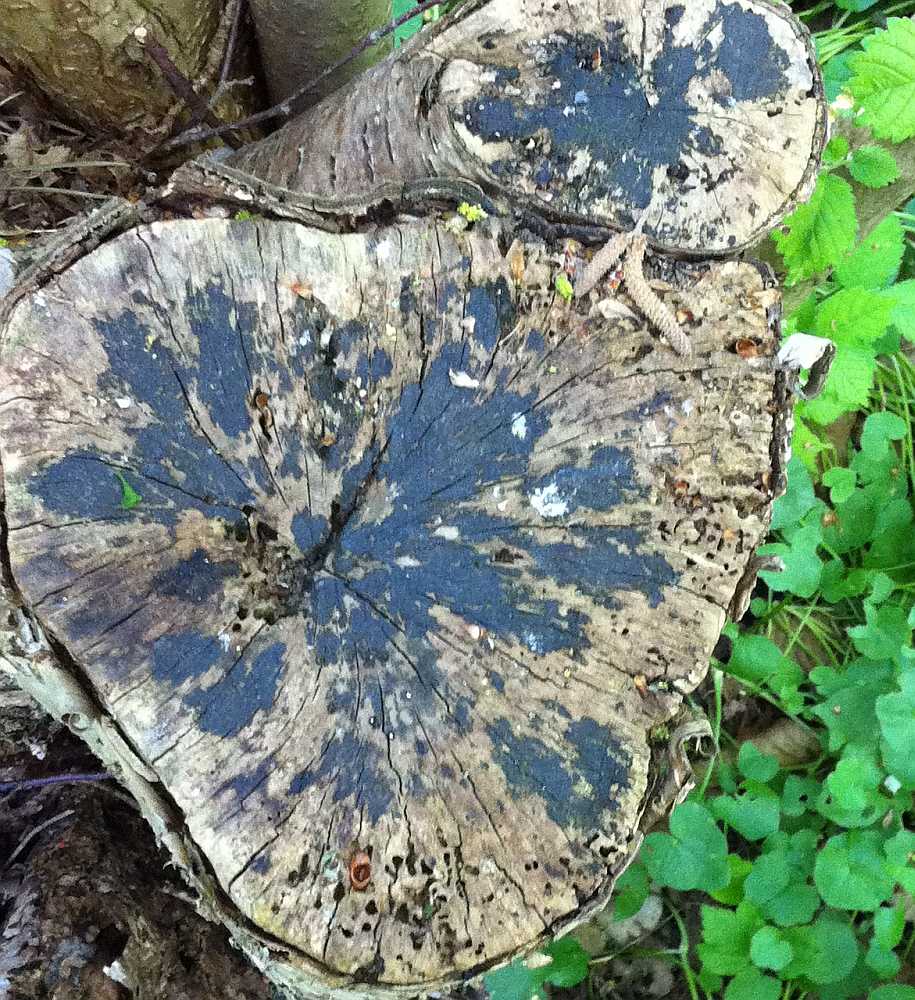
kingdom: Fungi
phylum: Ascomycota
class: Leotiomycetes
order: Helotiales
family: Helotiaceae
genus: Bispora
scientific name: Bispora pallescens
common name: måtte-snitskive
